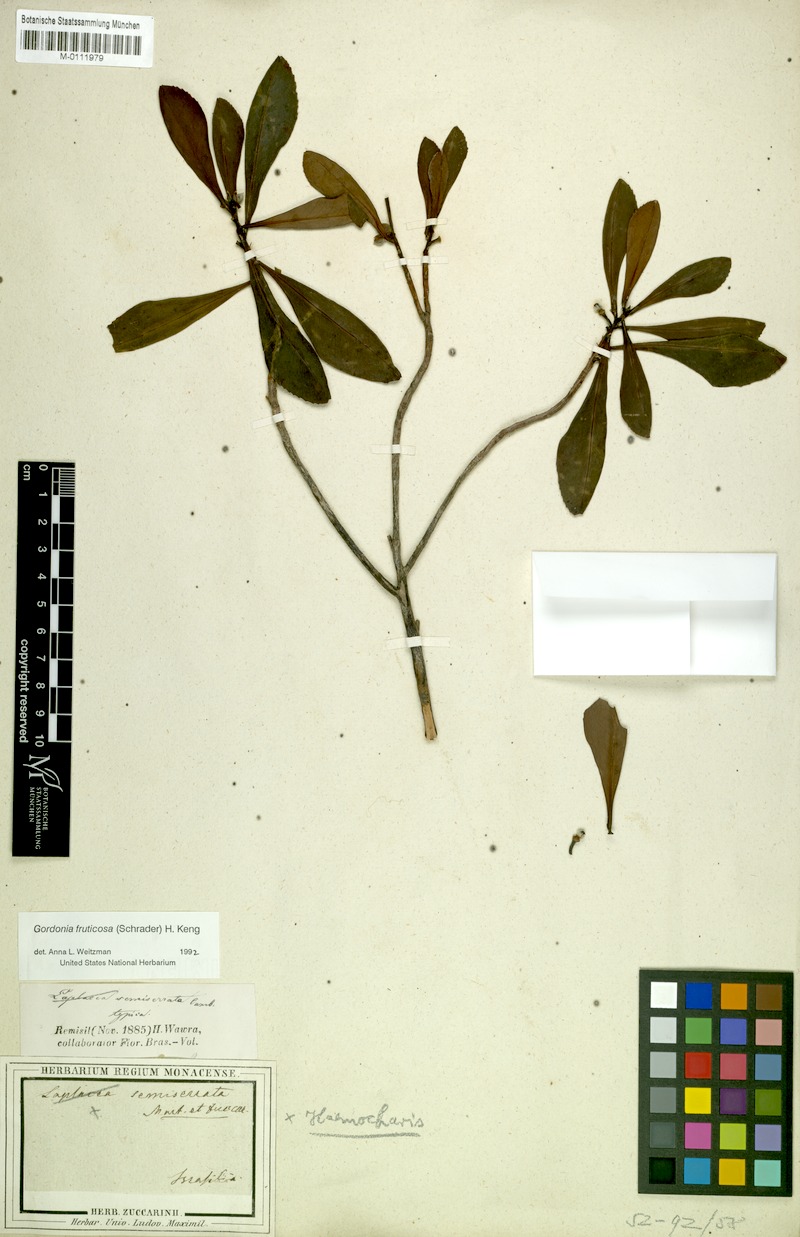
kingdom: Plantae
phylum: Tracheophyta
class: Magnoliopsida
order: Ericales
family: Theaceae
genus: Gordonia
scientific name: Gordonia fruticosa
